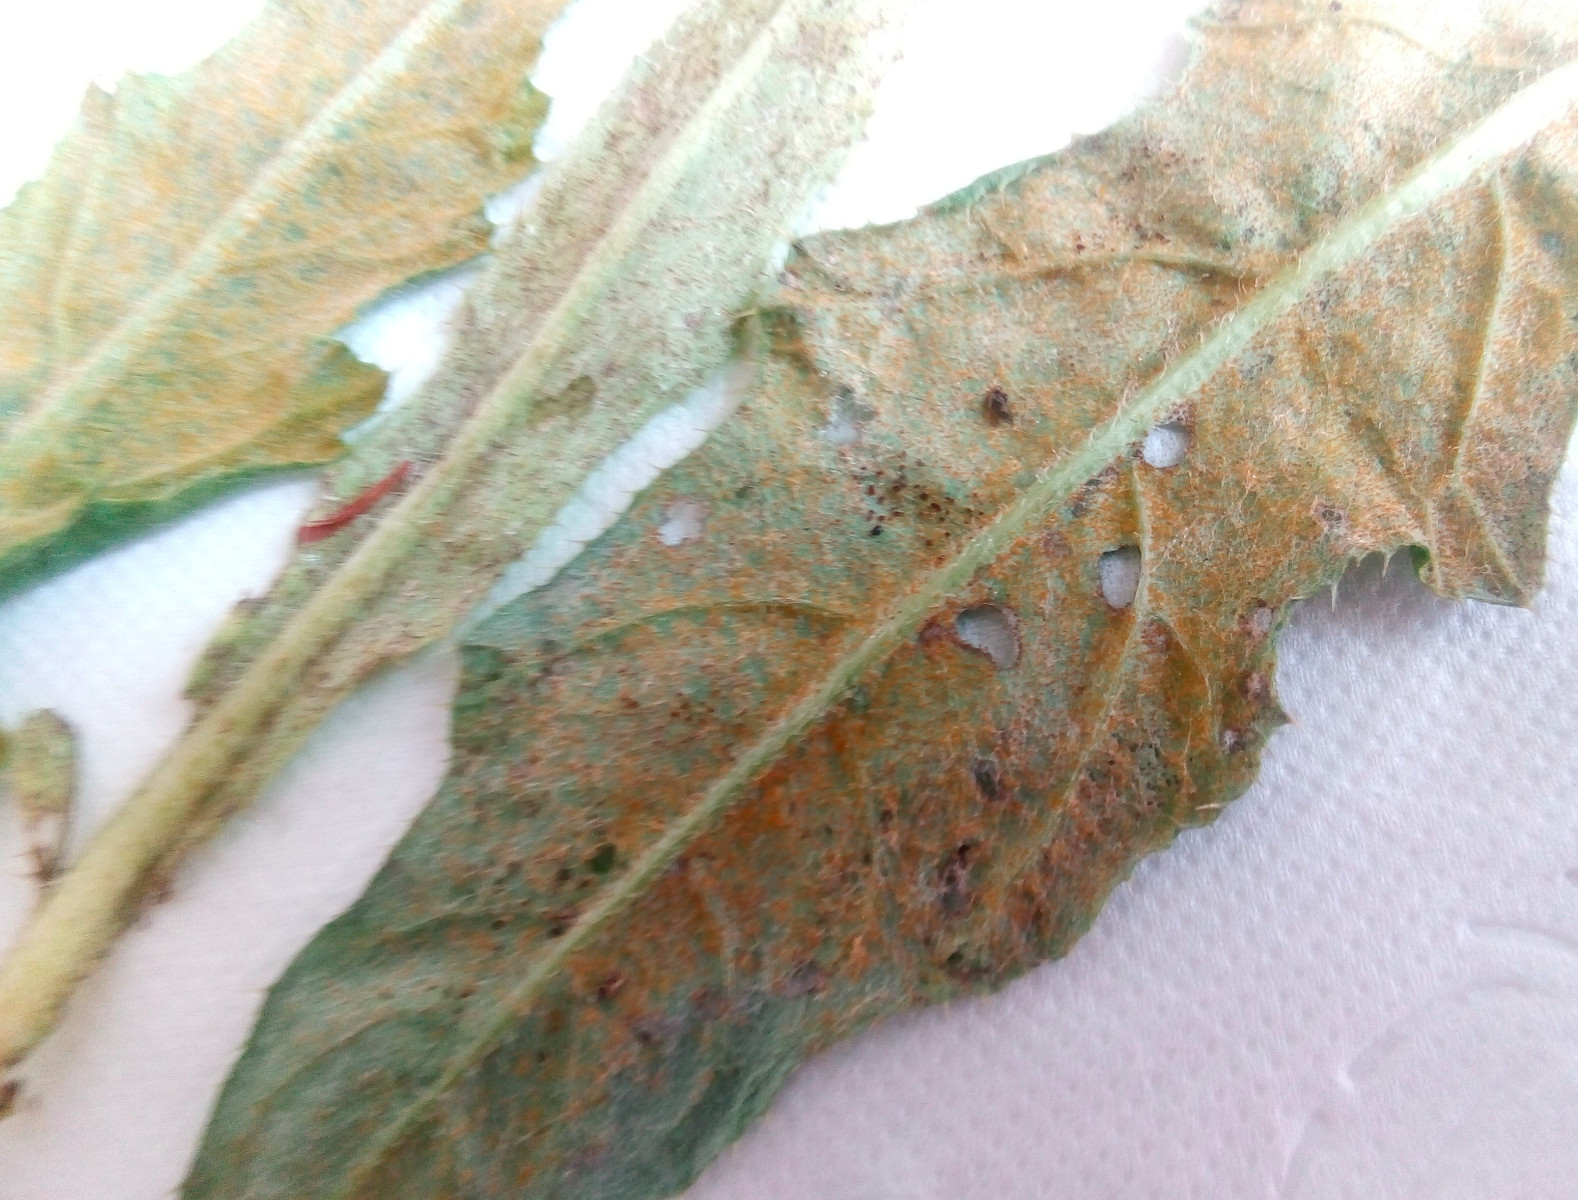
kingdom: Fungi
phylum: Basidiomycota
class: Pucciniomycetes
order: Pucciniales
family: Pucciniaceae
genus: Puccinia
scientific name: Puccinia suaveolens
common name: tidsel-tvecellerust
